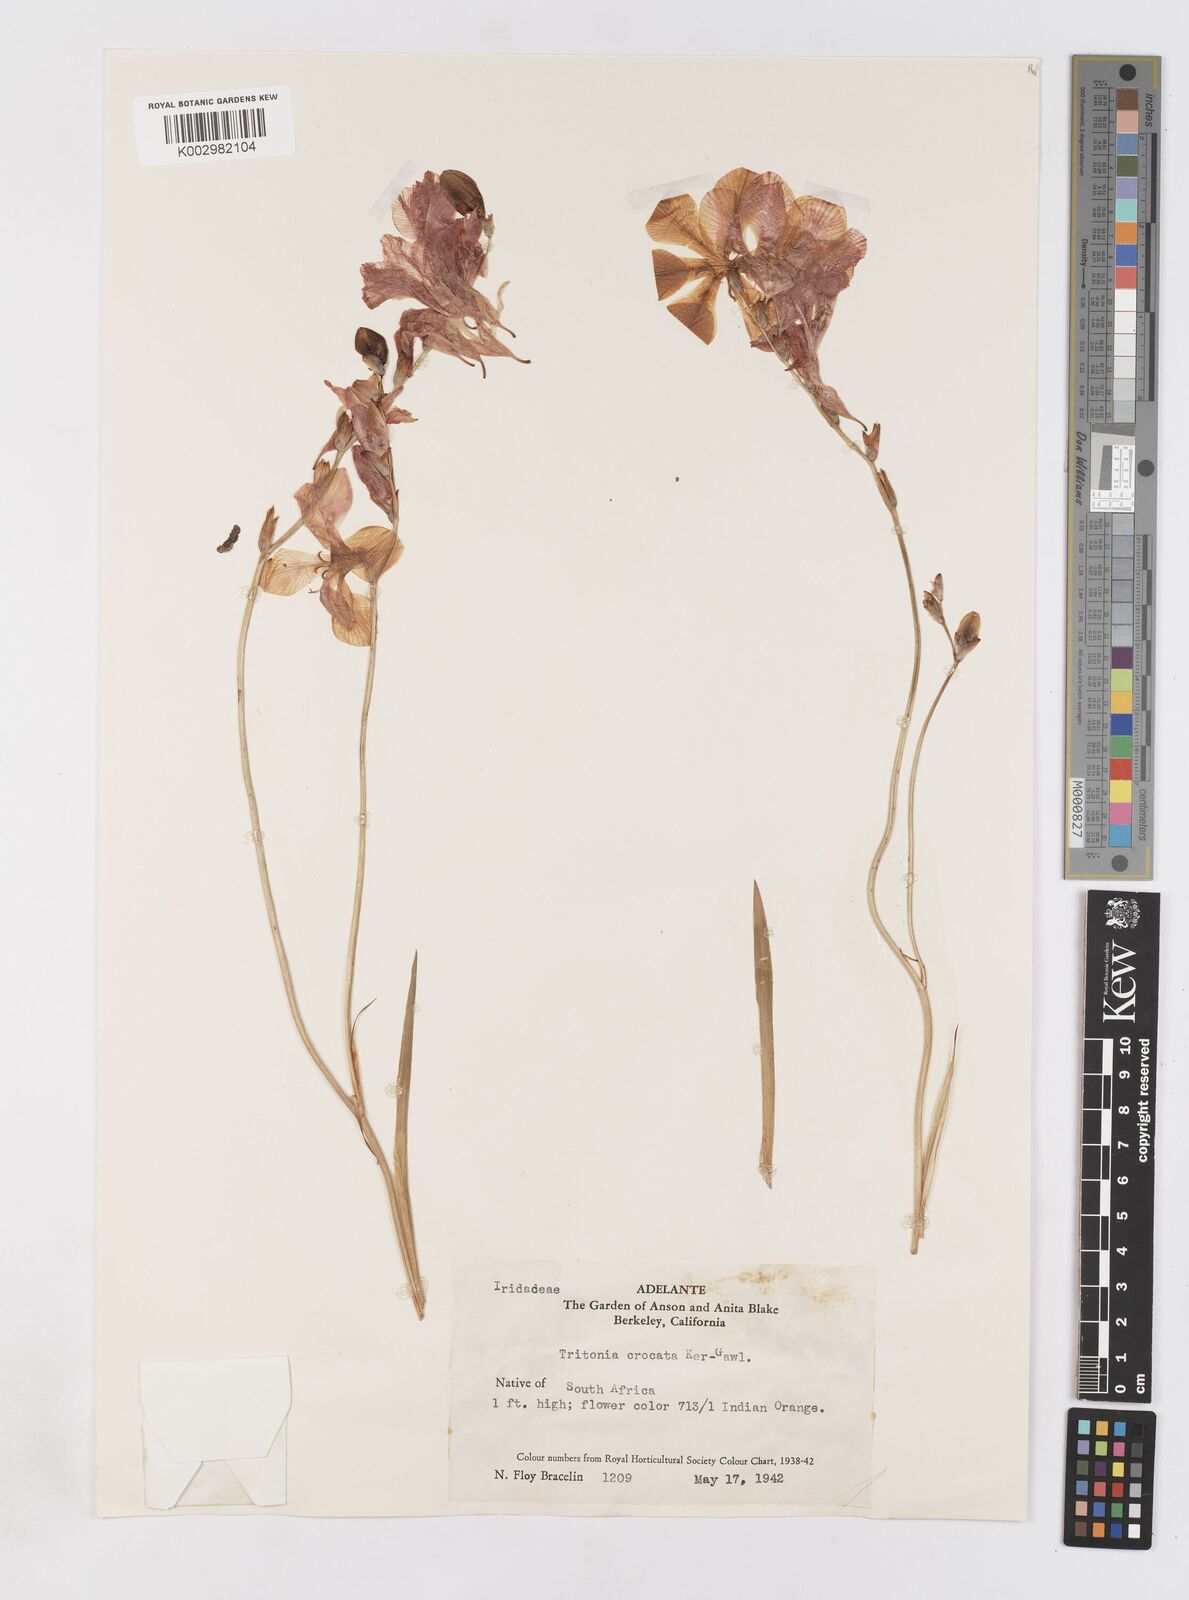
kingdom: Plantae
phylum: Tracheophyta
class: Liliopsida
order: Asparagales
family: Iridaceae
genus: Tritonia
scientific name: Tritonia crocata
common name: Flame-freesia
